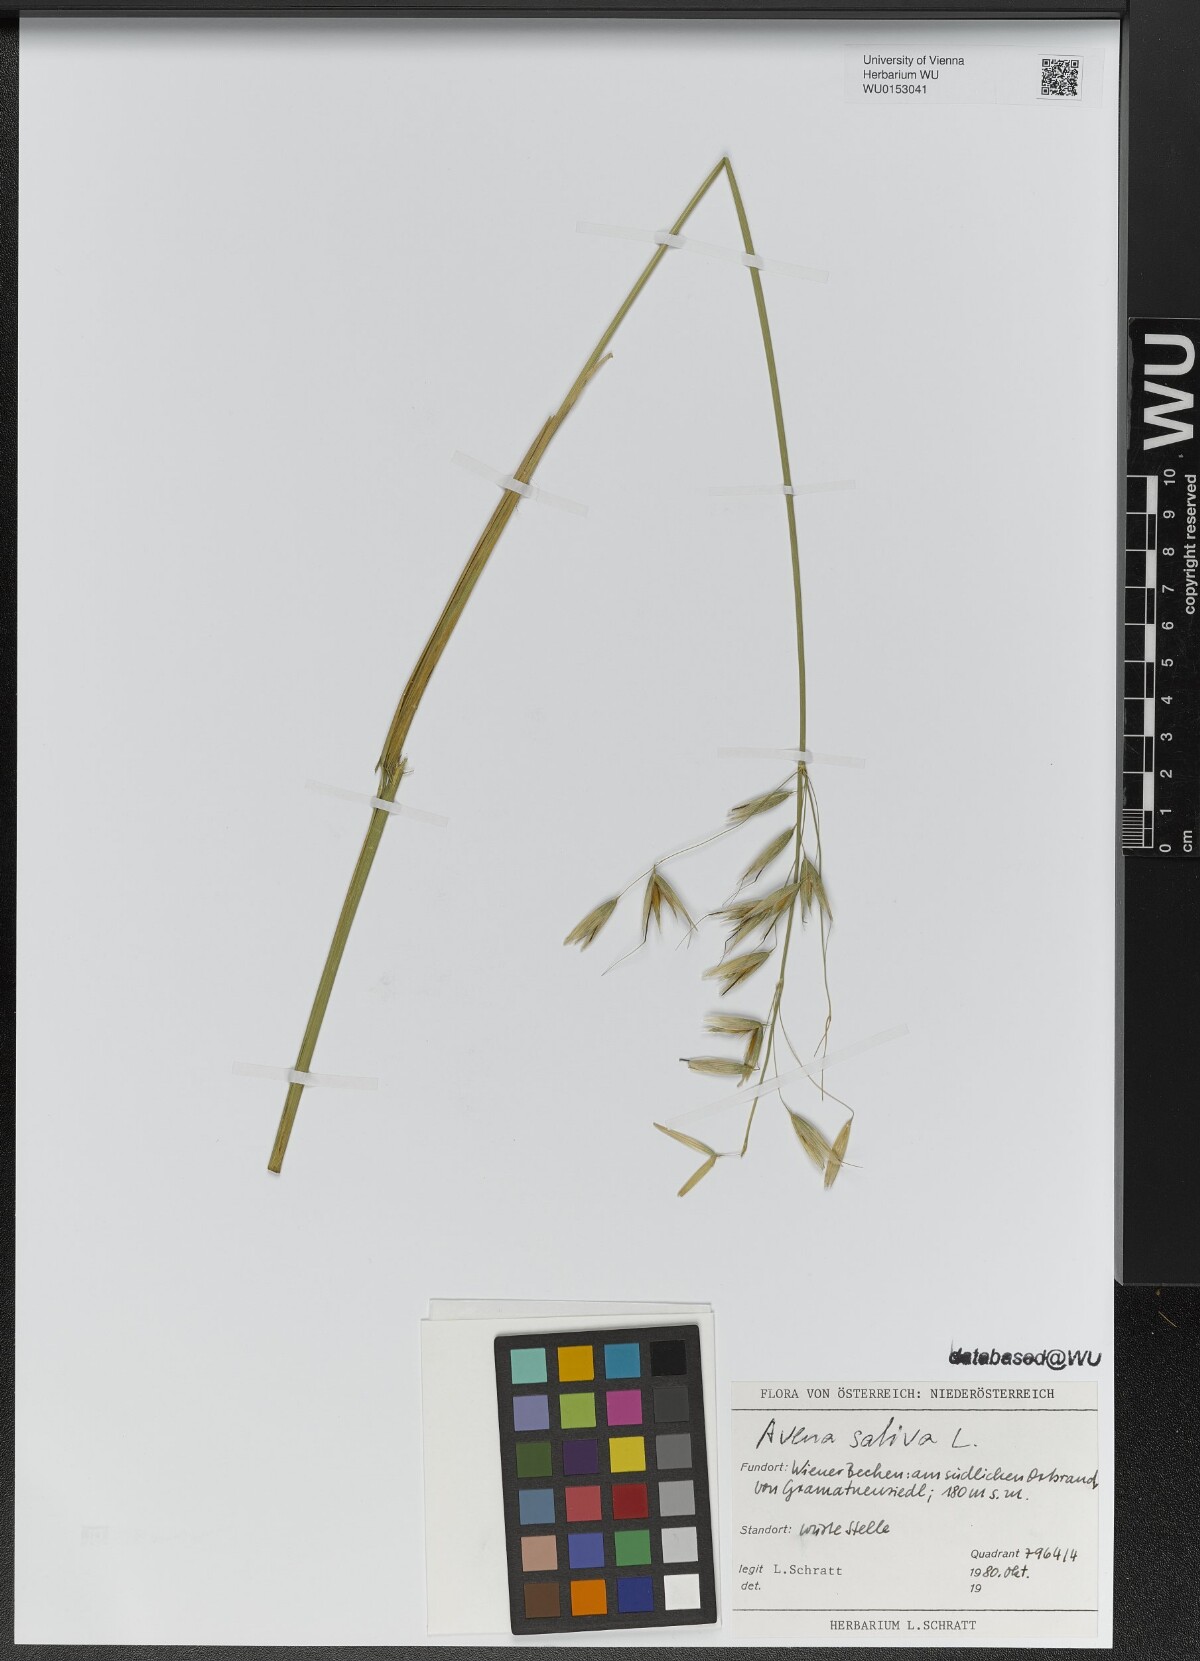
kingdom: Plantae
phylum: Tracheophyta
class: Liliopsida
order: Poales
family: Poaceae
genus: Avena
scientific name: Avena sativa
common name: Oat
